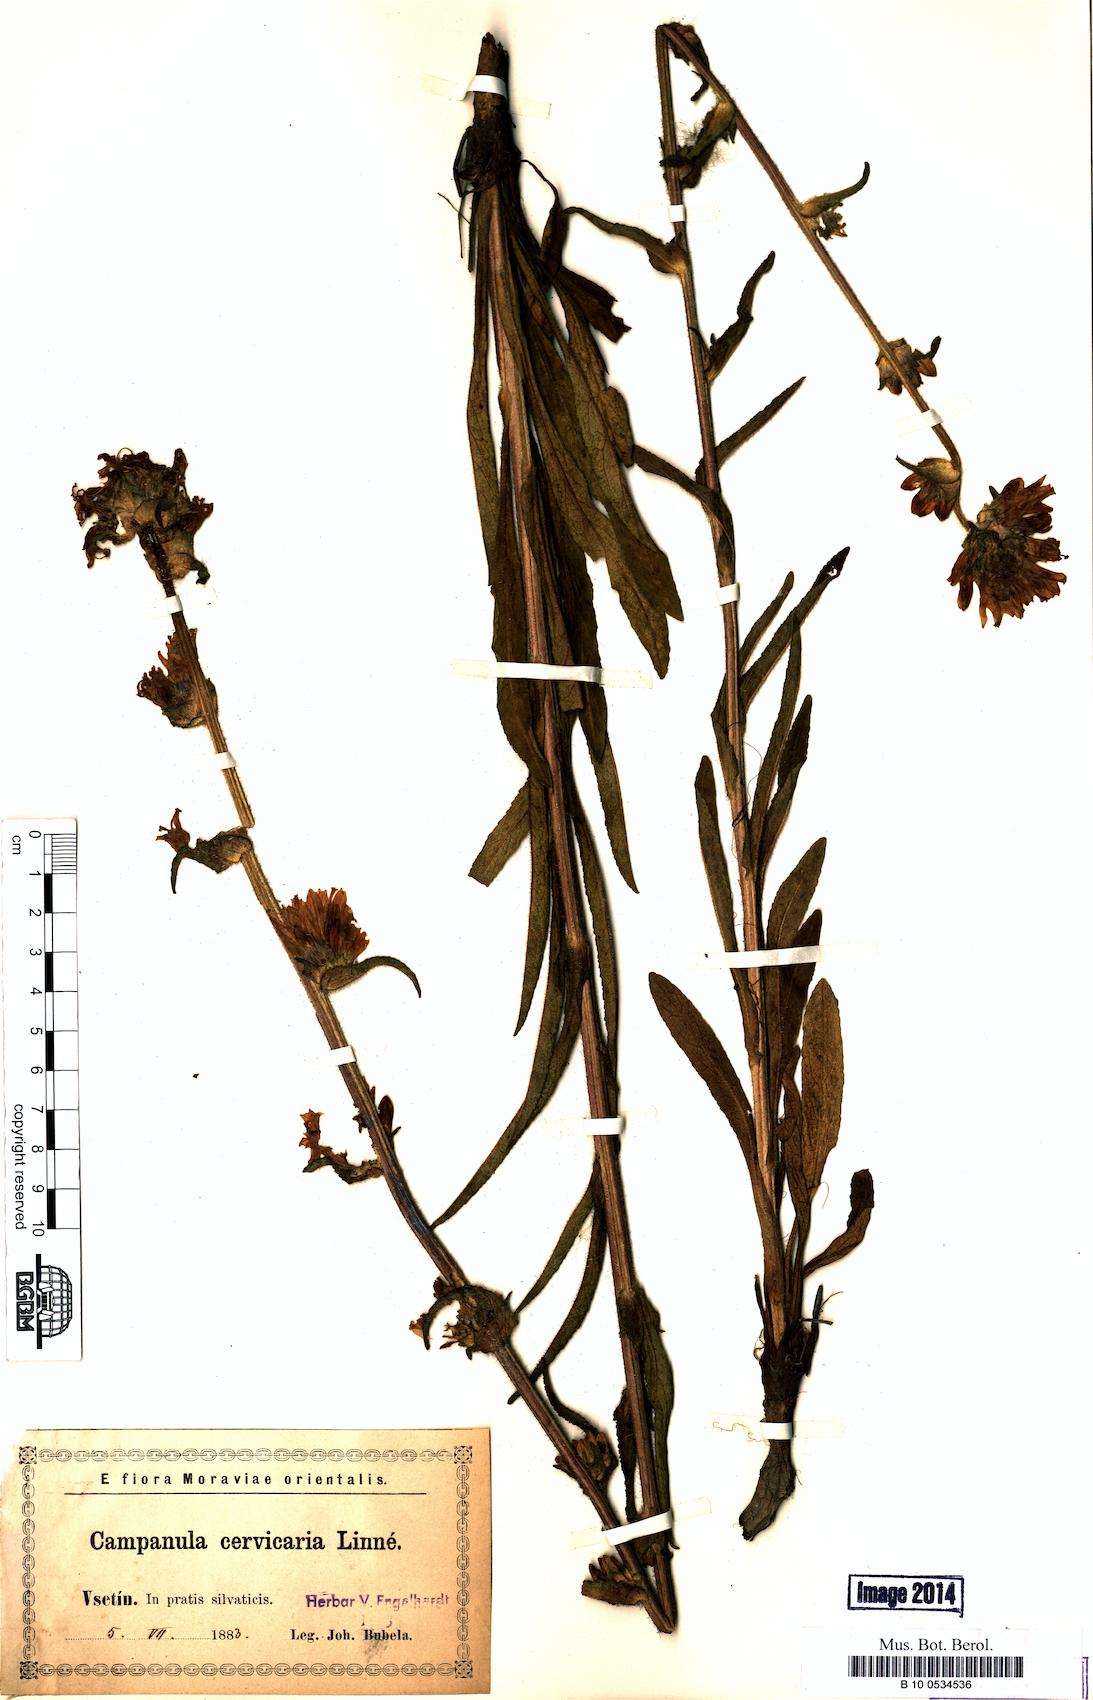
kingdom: Plantae
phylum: Tracheophyta
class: Magnoliopsida
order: Asterales
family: Campanulaceae
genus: Campanula
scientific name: Campanula cervicaria
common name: Bristly bellflower
